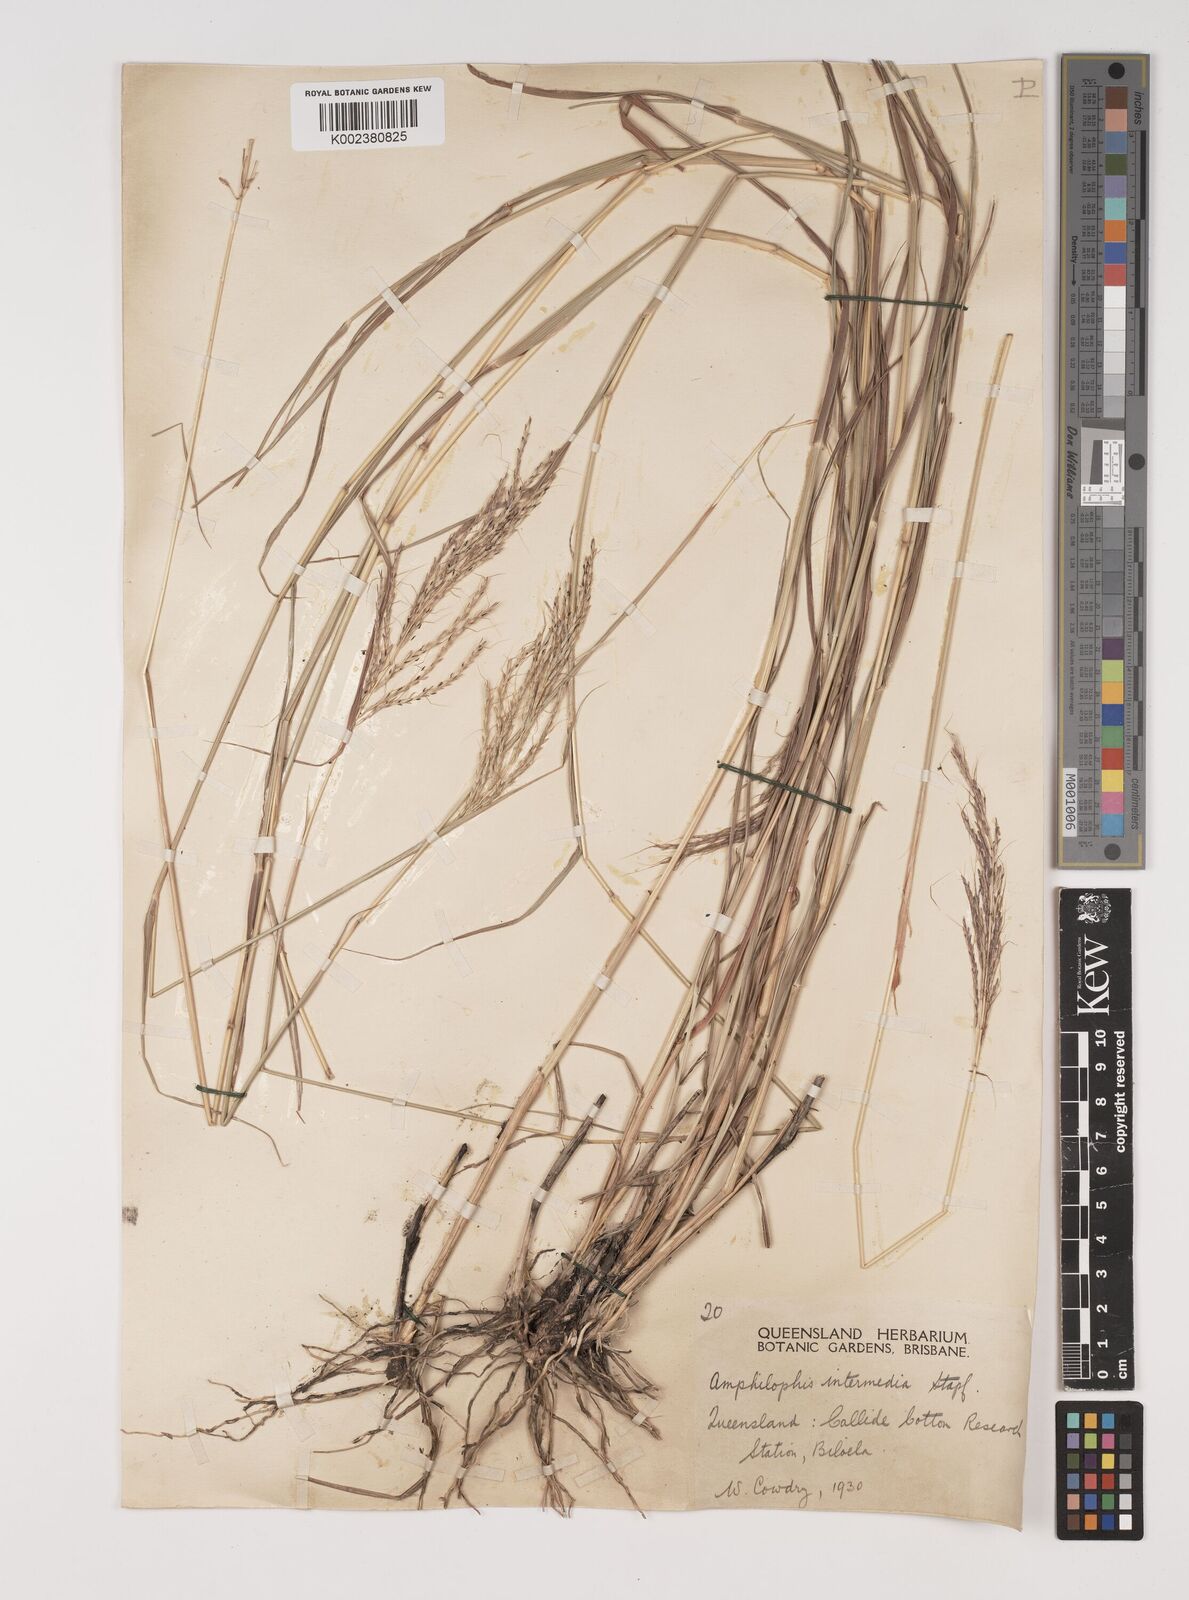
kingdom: Plantae
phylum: Tracheophyta
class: Liliopsida
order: Poales
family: Poaceae
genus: Bothriochloa
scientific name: Bothriochloa bladhii
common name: Caucasian bluestem
